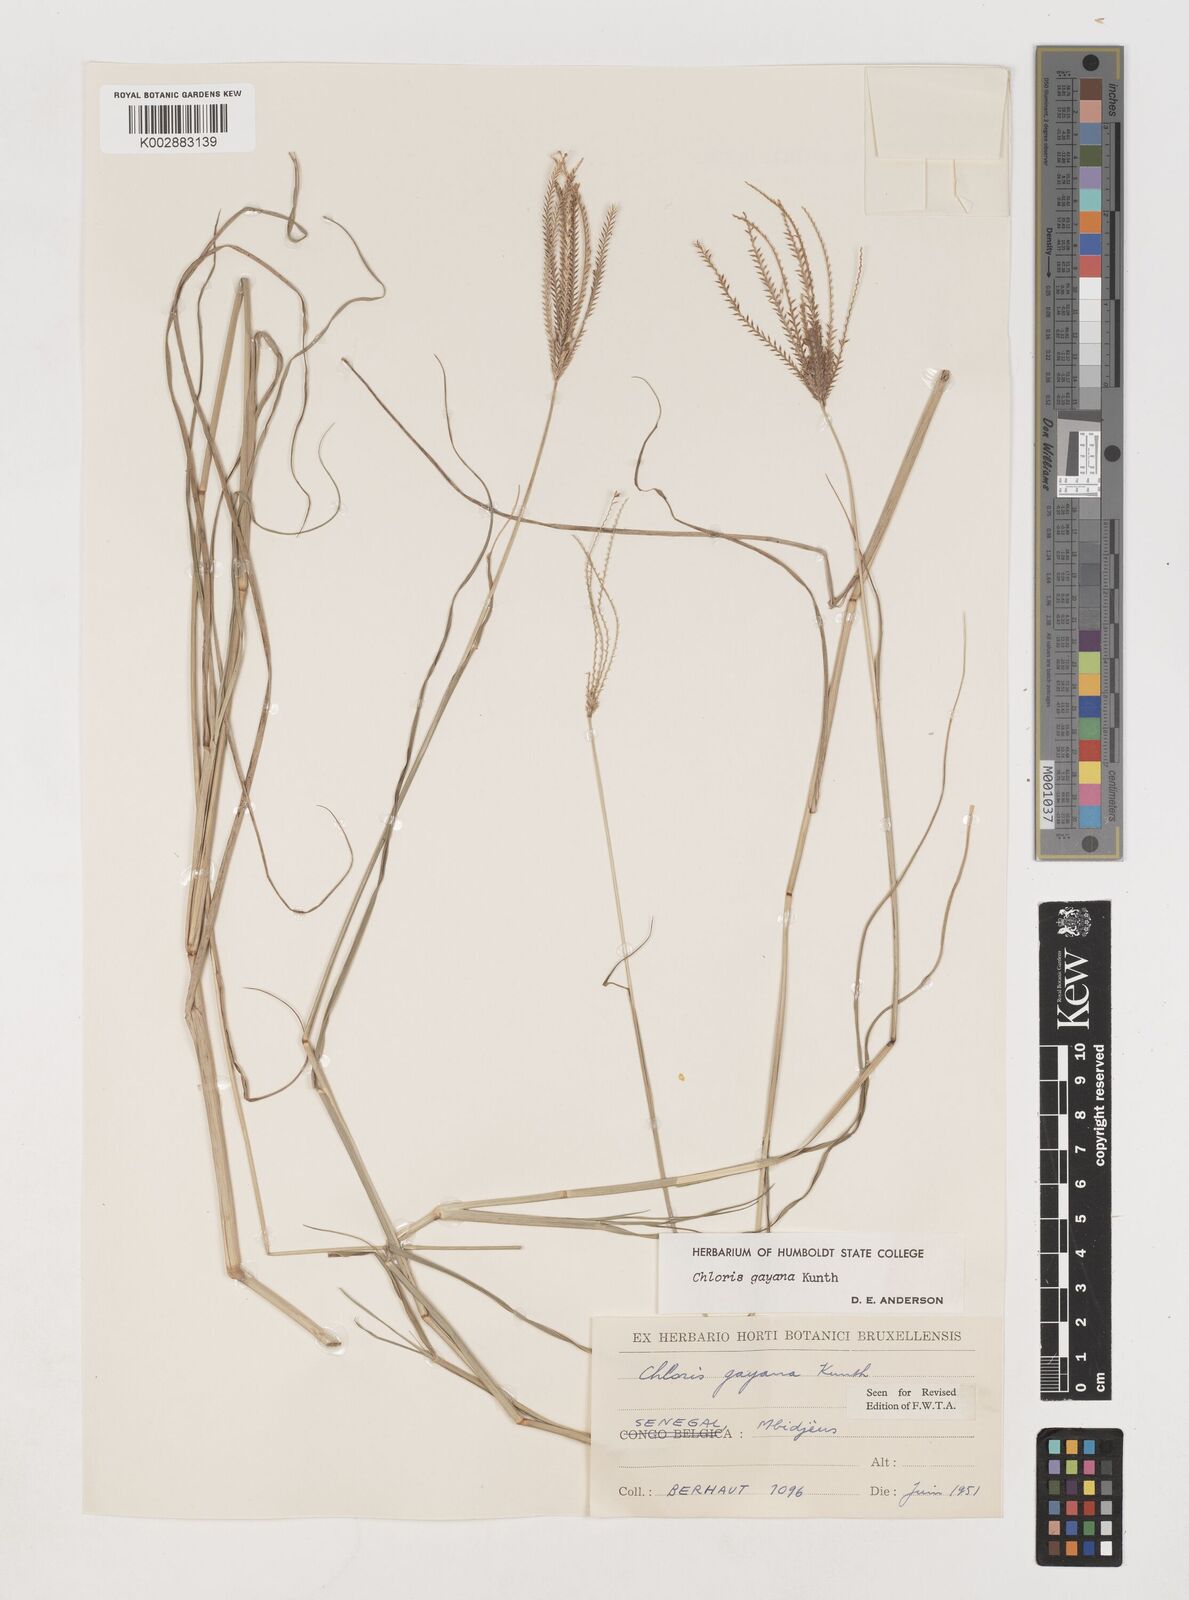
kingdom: Plantae
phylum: Tracheophyta
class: Liliopsida
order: Poales
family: Poaceae
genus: Chloris
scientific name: Chloris gayana
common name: Rhodes grass
